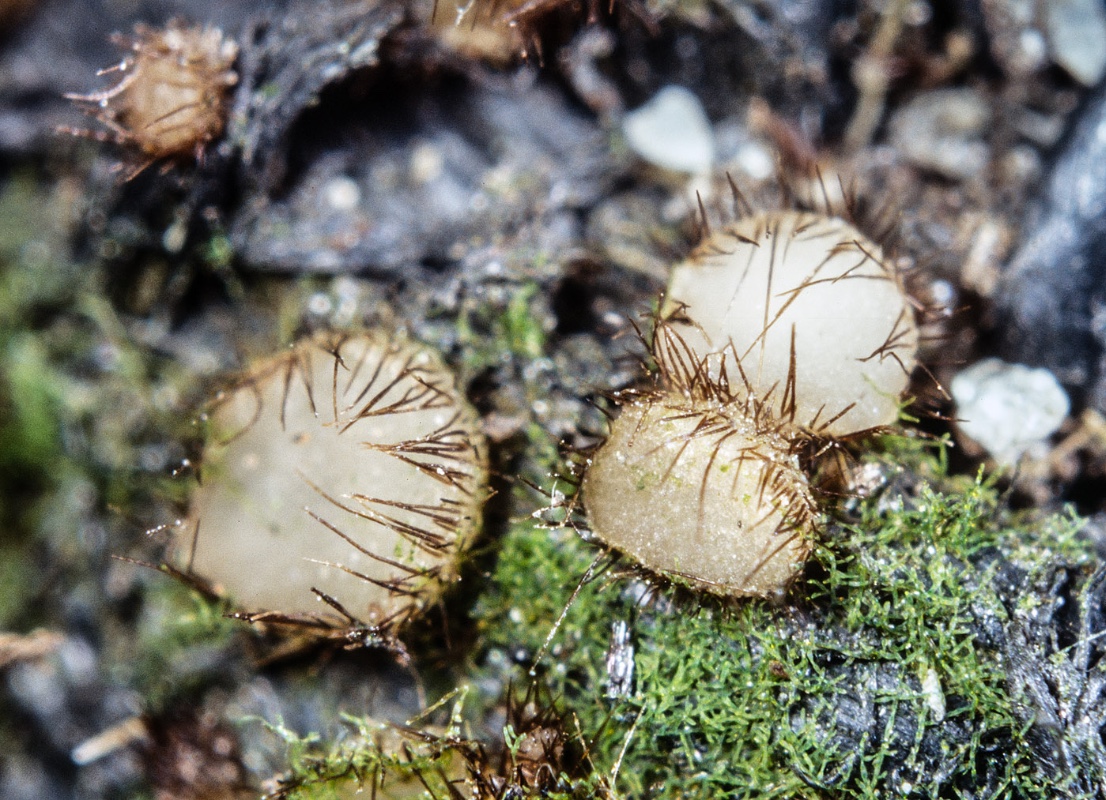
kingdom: Fungi
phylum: Ascomycota
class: Pezizomycetes
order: Pezizales
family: Pyronemataceae
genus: Lasiobolidium
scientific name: Lasiobolidium
